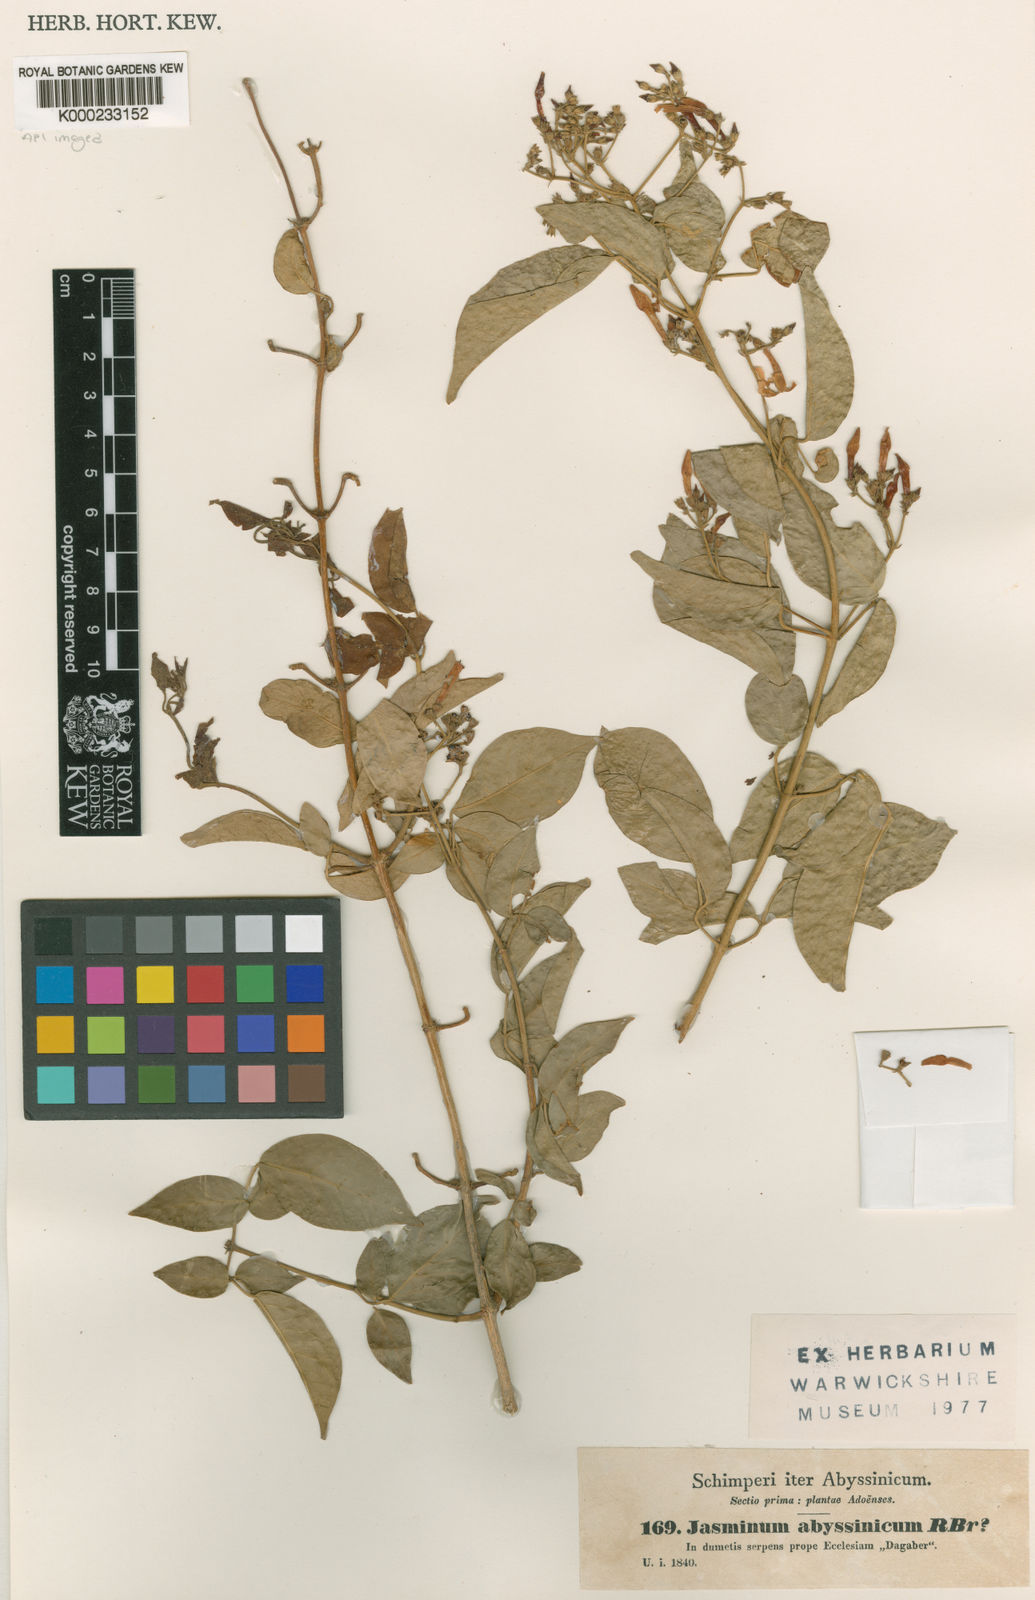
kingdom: Plantae
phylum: Tracheophyta
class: Magnoliopsida
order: Lamiales
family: Oleaceae
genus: Jasminum
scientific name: Jasminum abyssinicum
